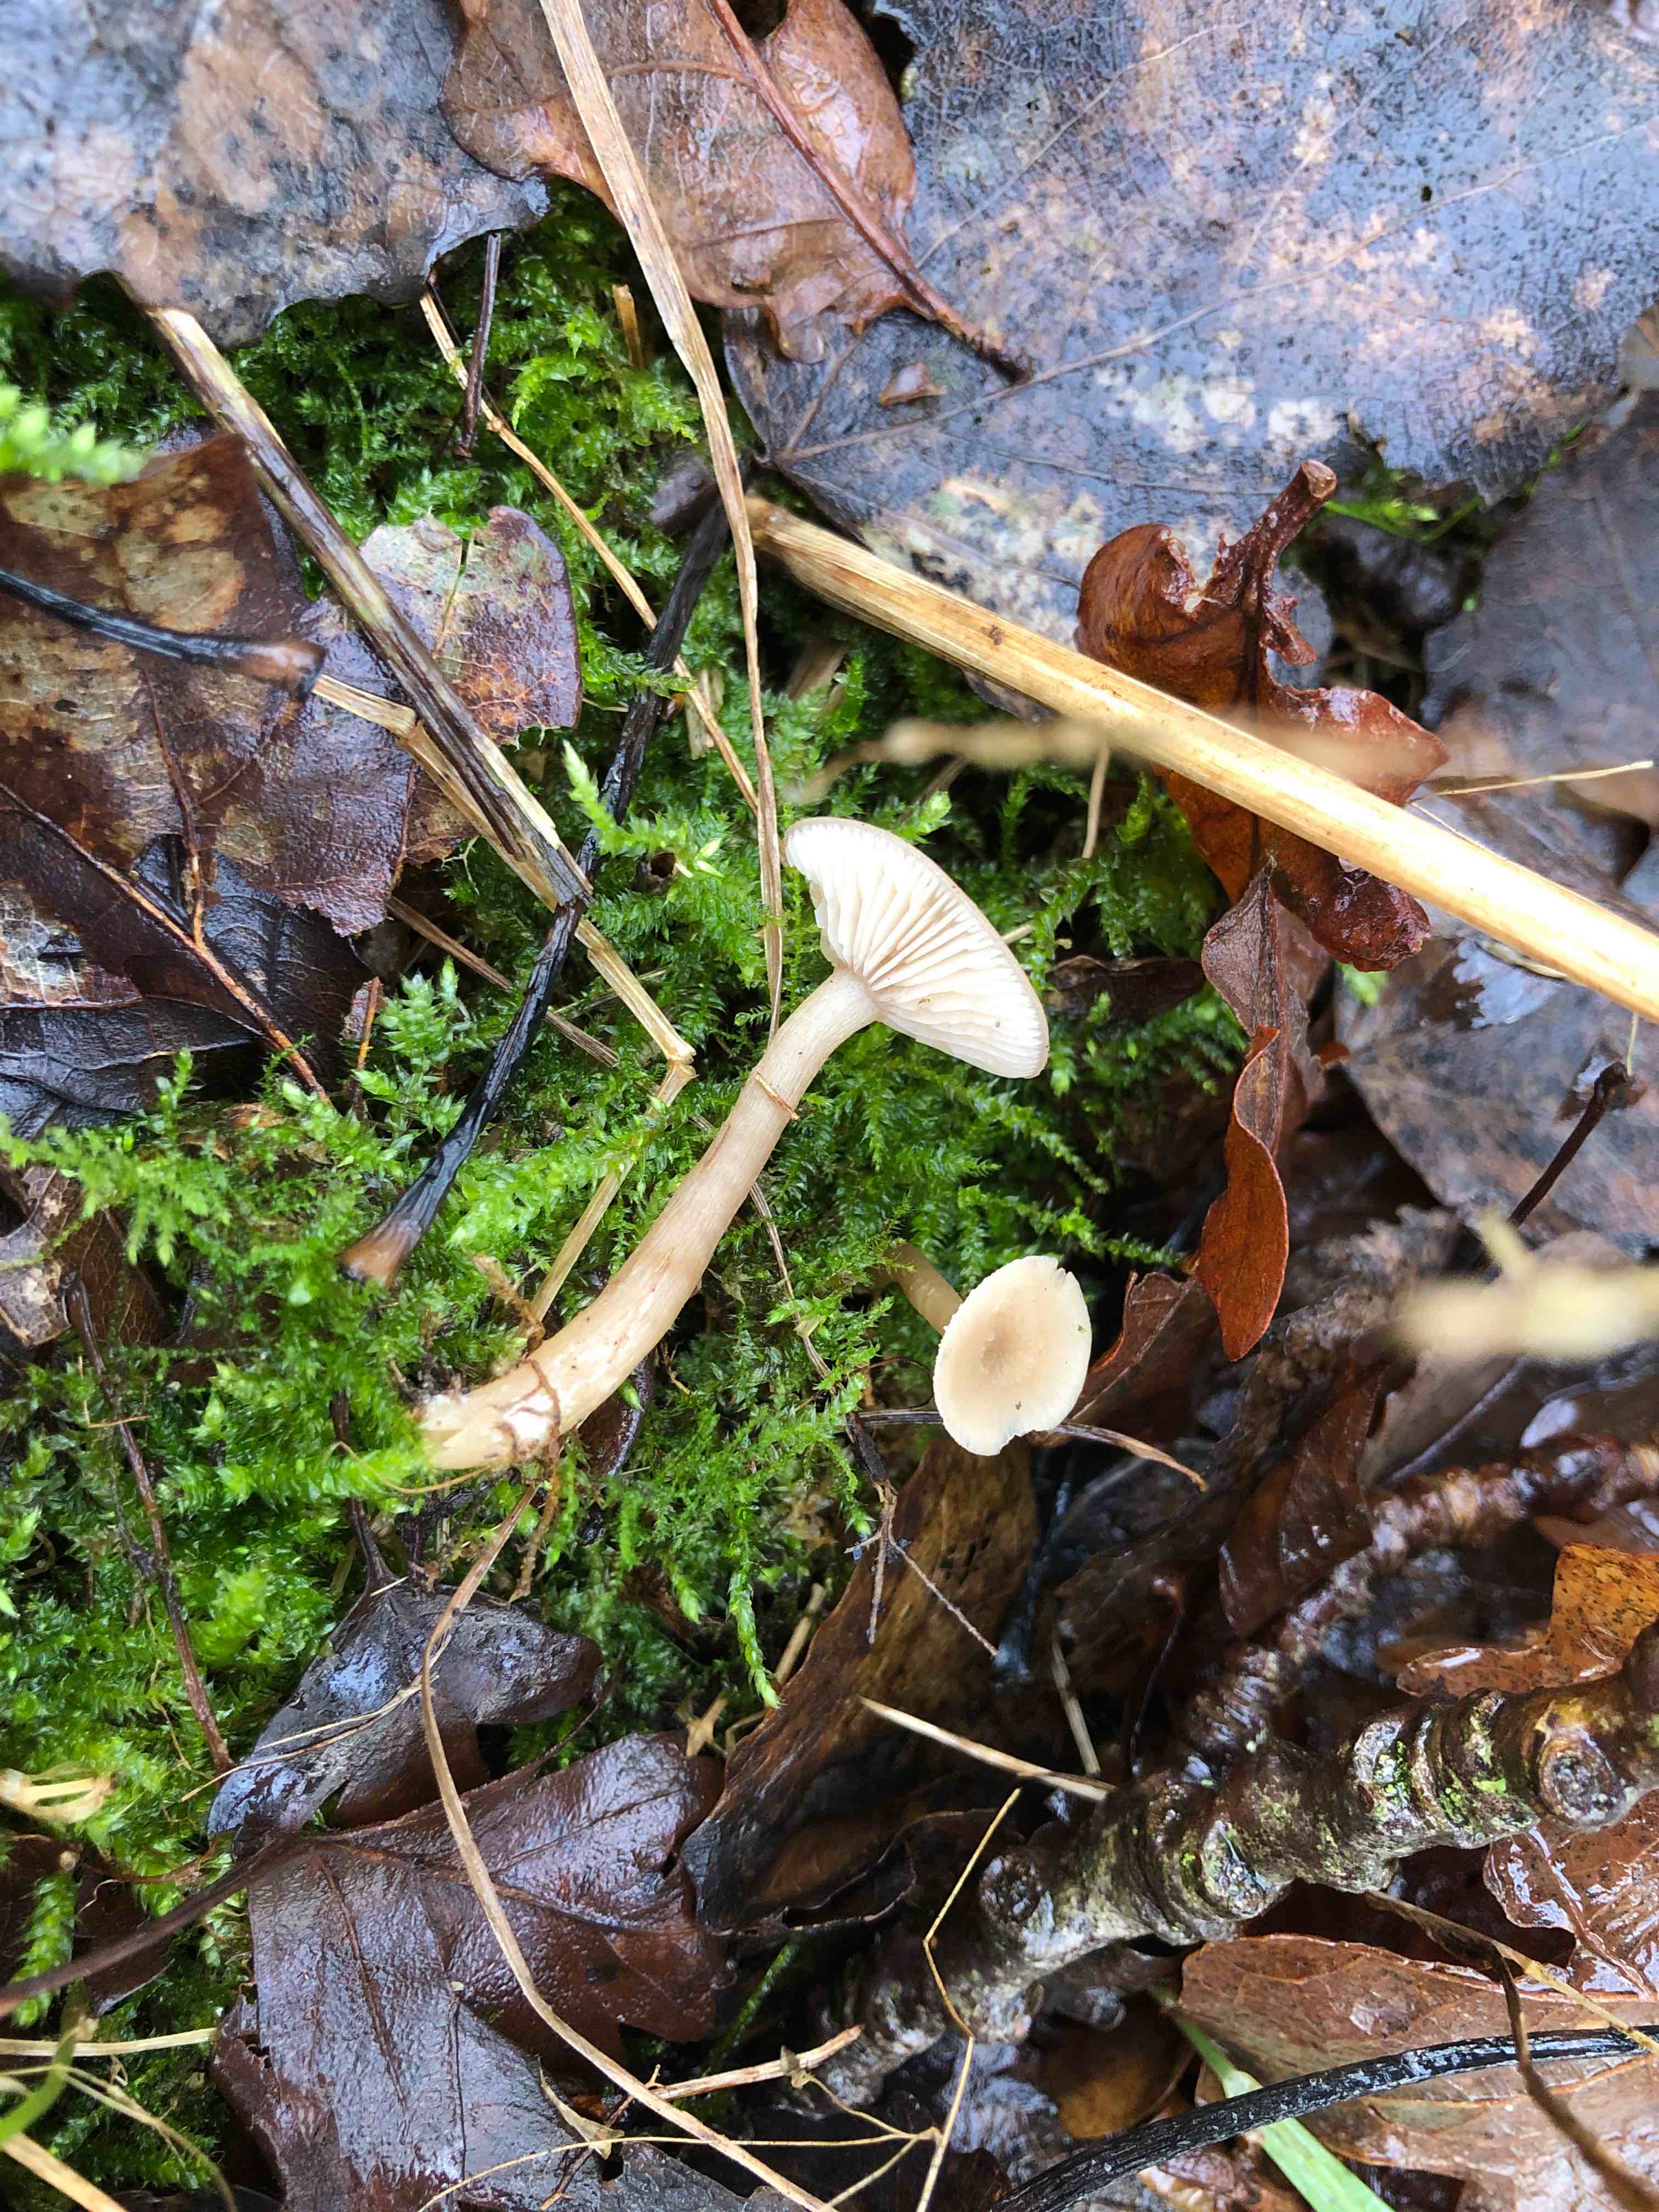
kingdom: Fungi
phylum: Basidiomycota
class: Agaricomycetes
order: Agaricales
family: Tricholomataceae
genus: Clitocybe
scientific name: Clitocybe fragrans
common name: vellugtende tragthat
